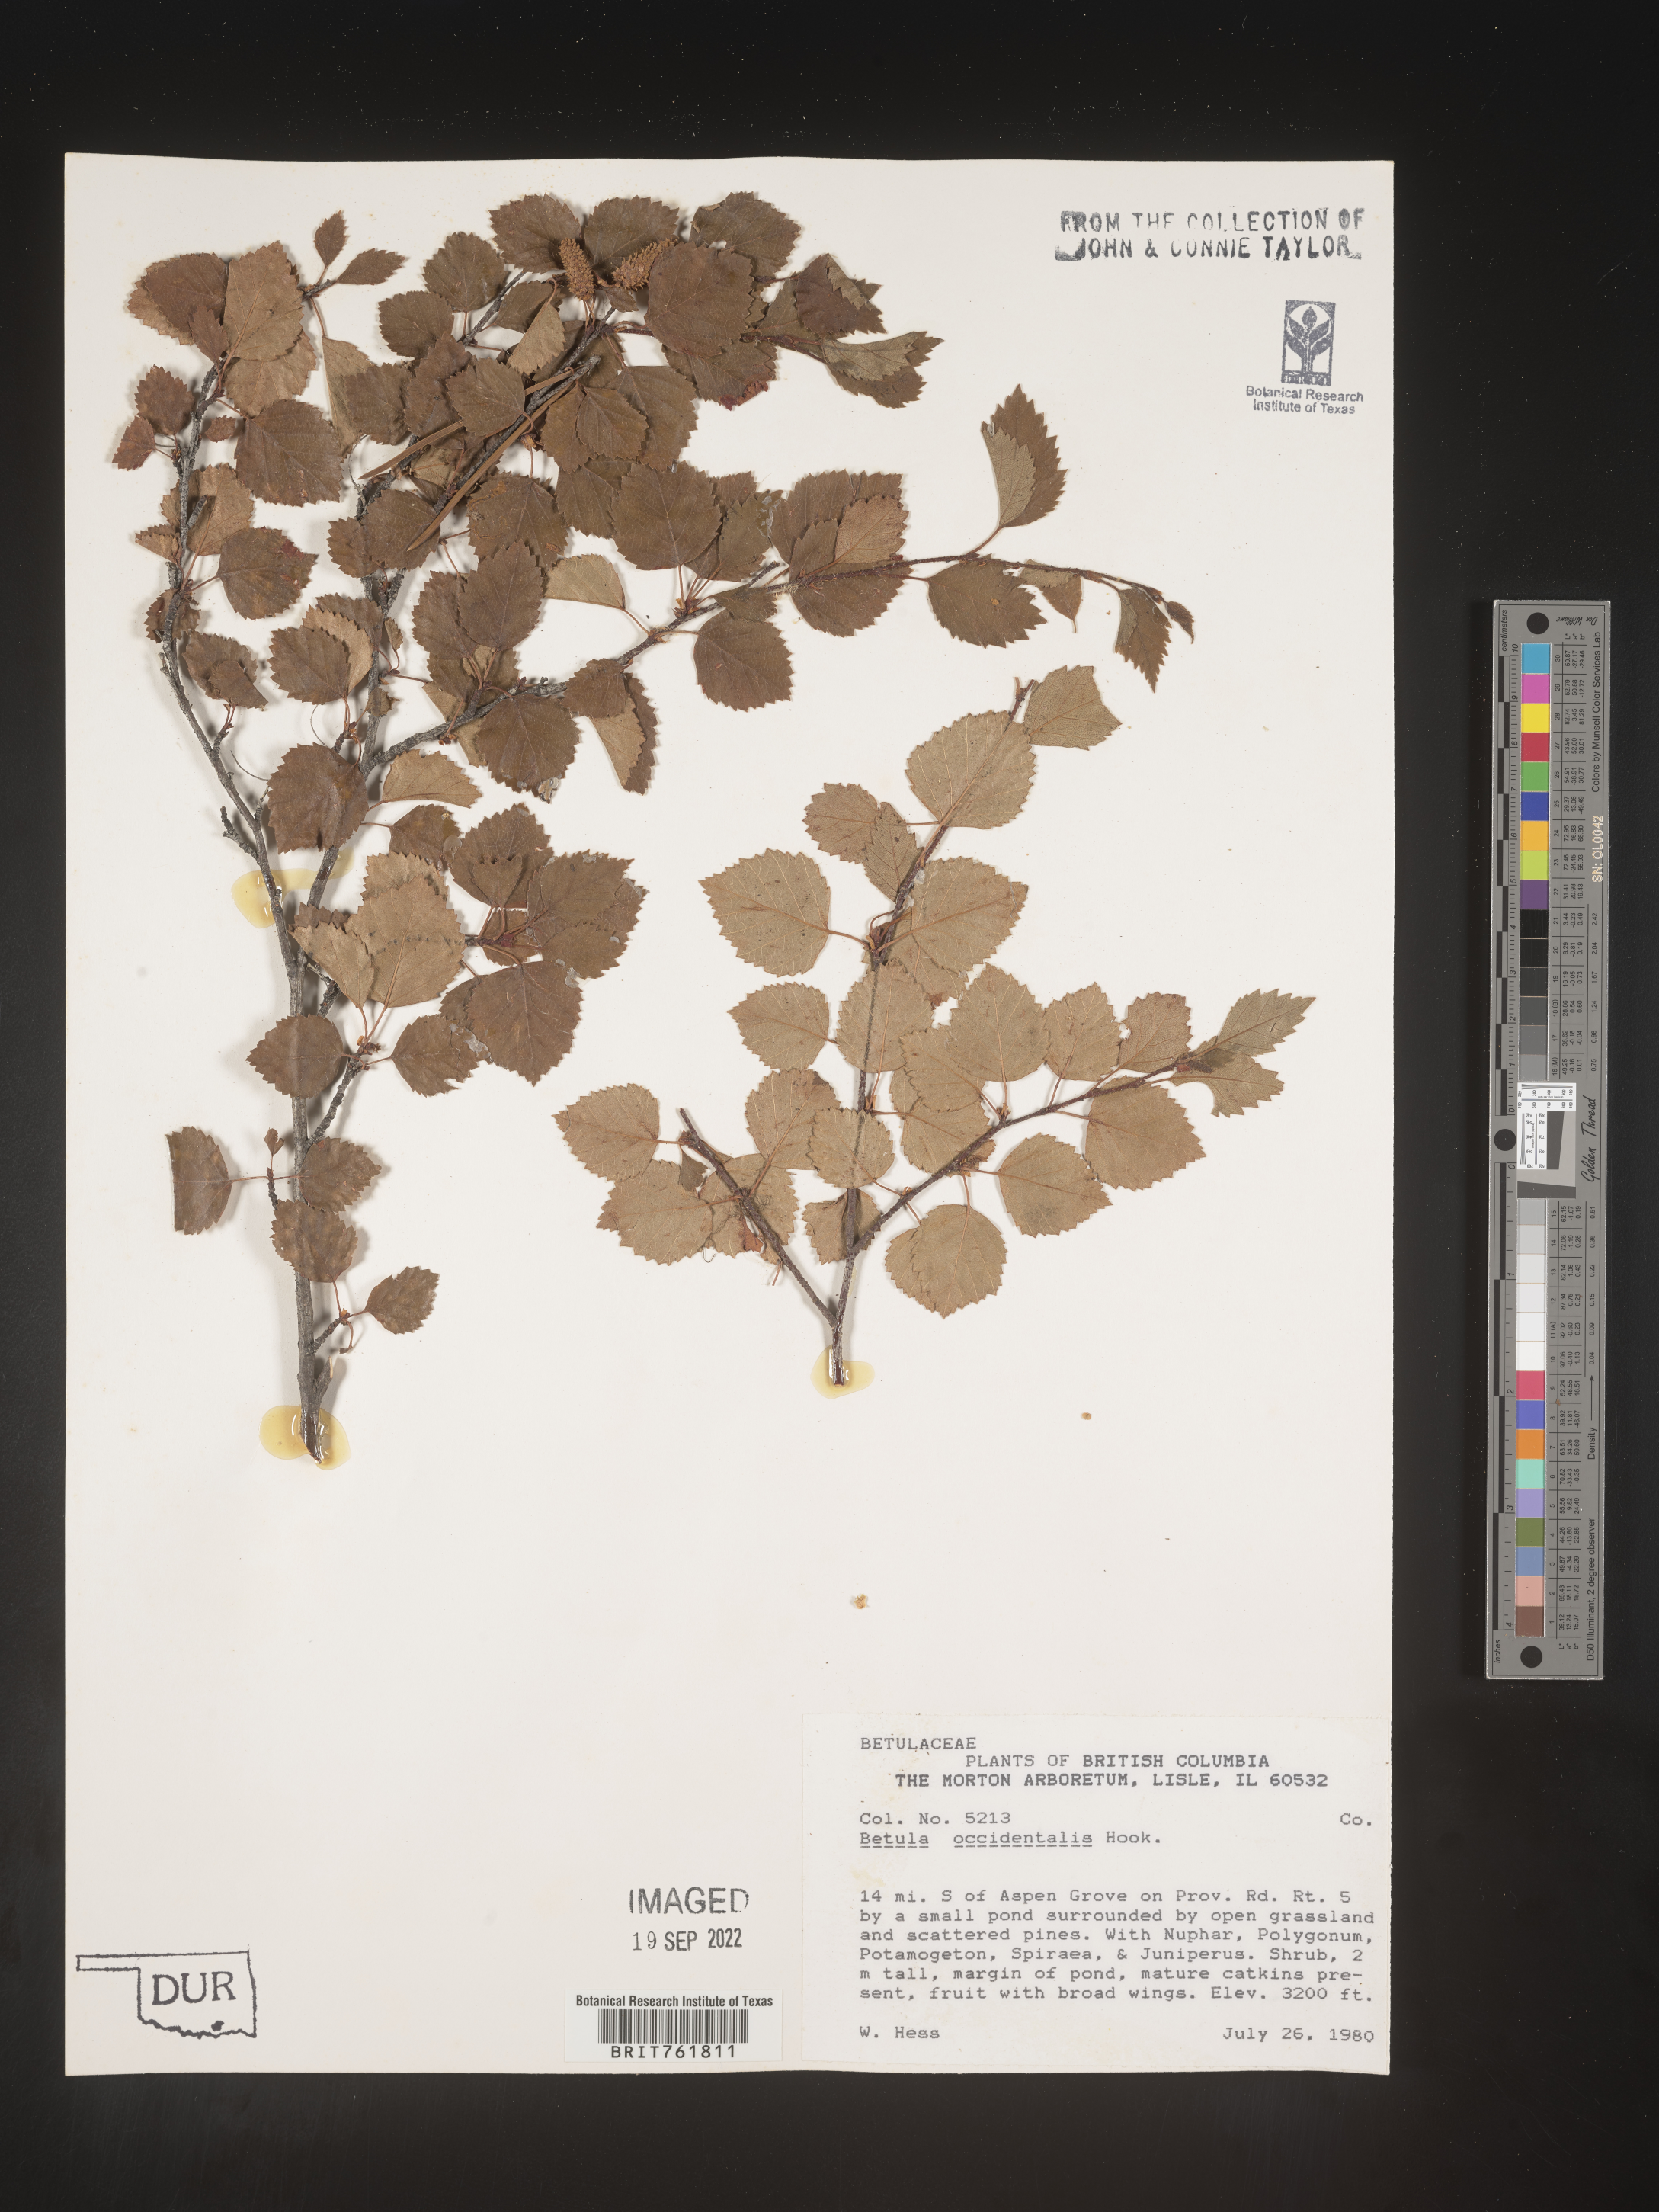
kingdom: Plantae
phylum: Tracheophyta
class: Magnoliopsida
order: Fagales
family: Betulaceae
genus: Betula
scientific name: Betula occidentalis
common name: River birch
